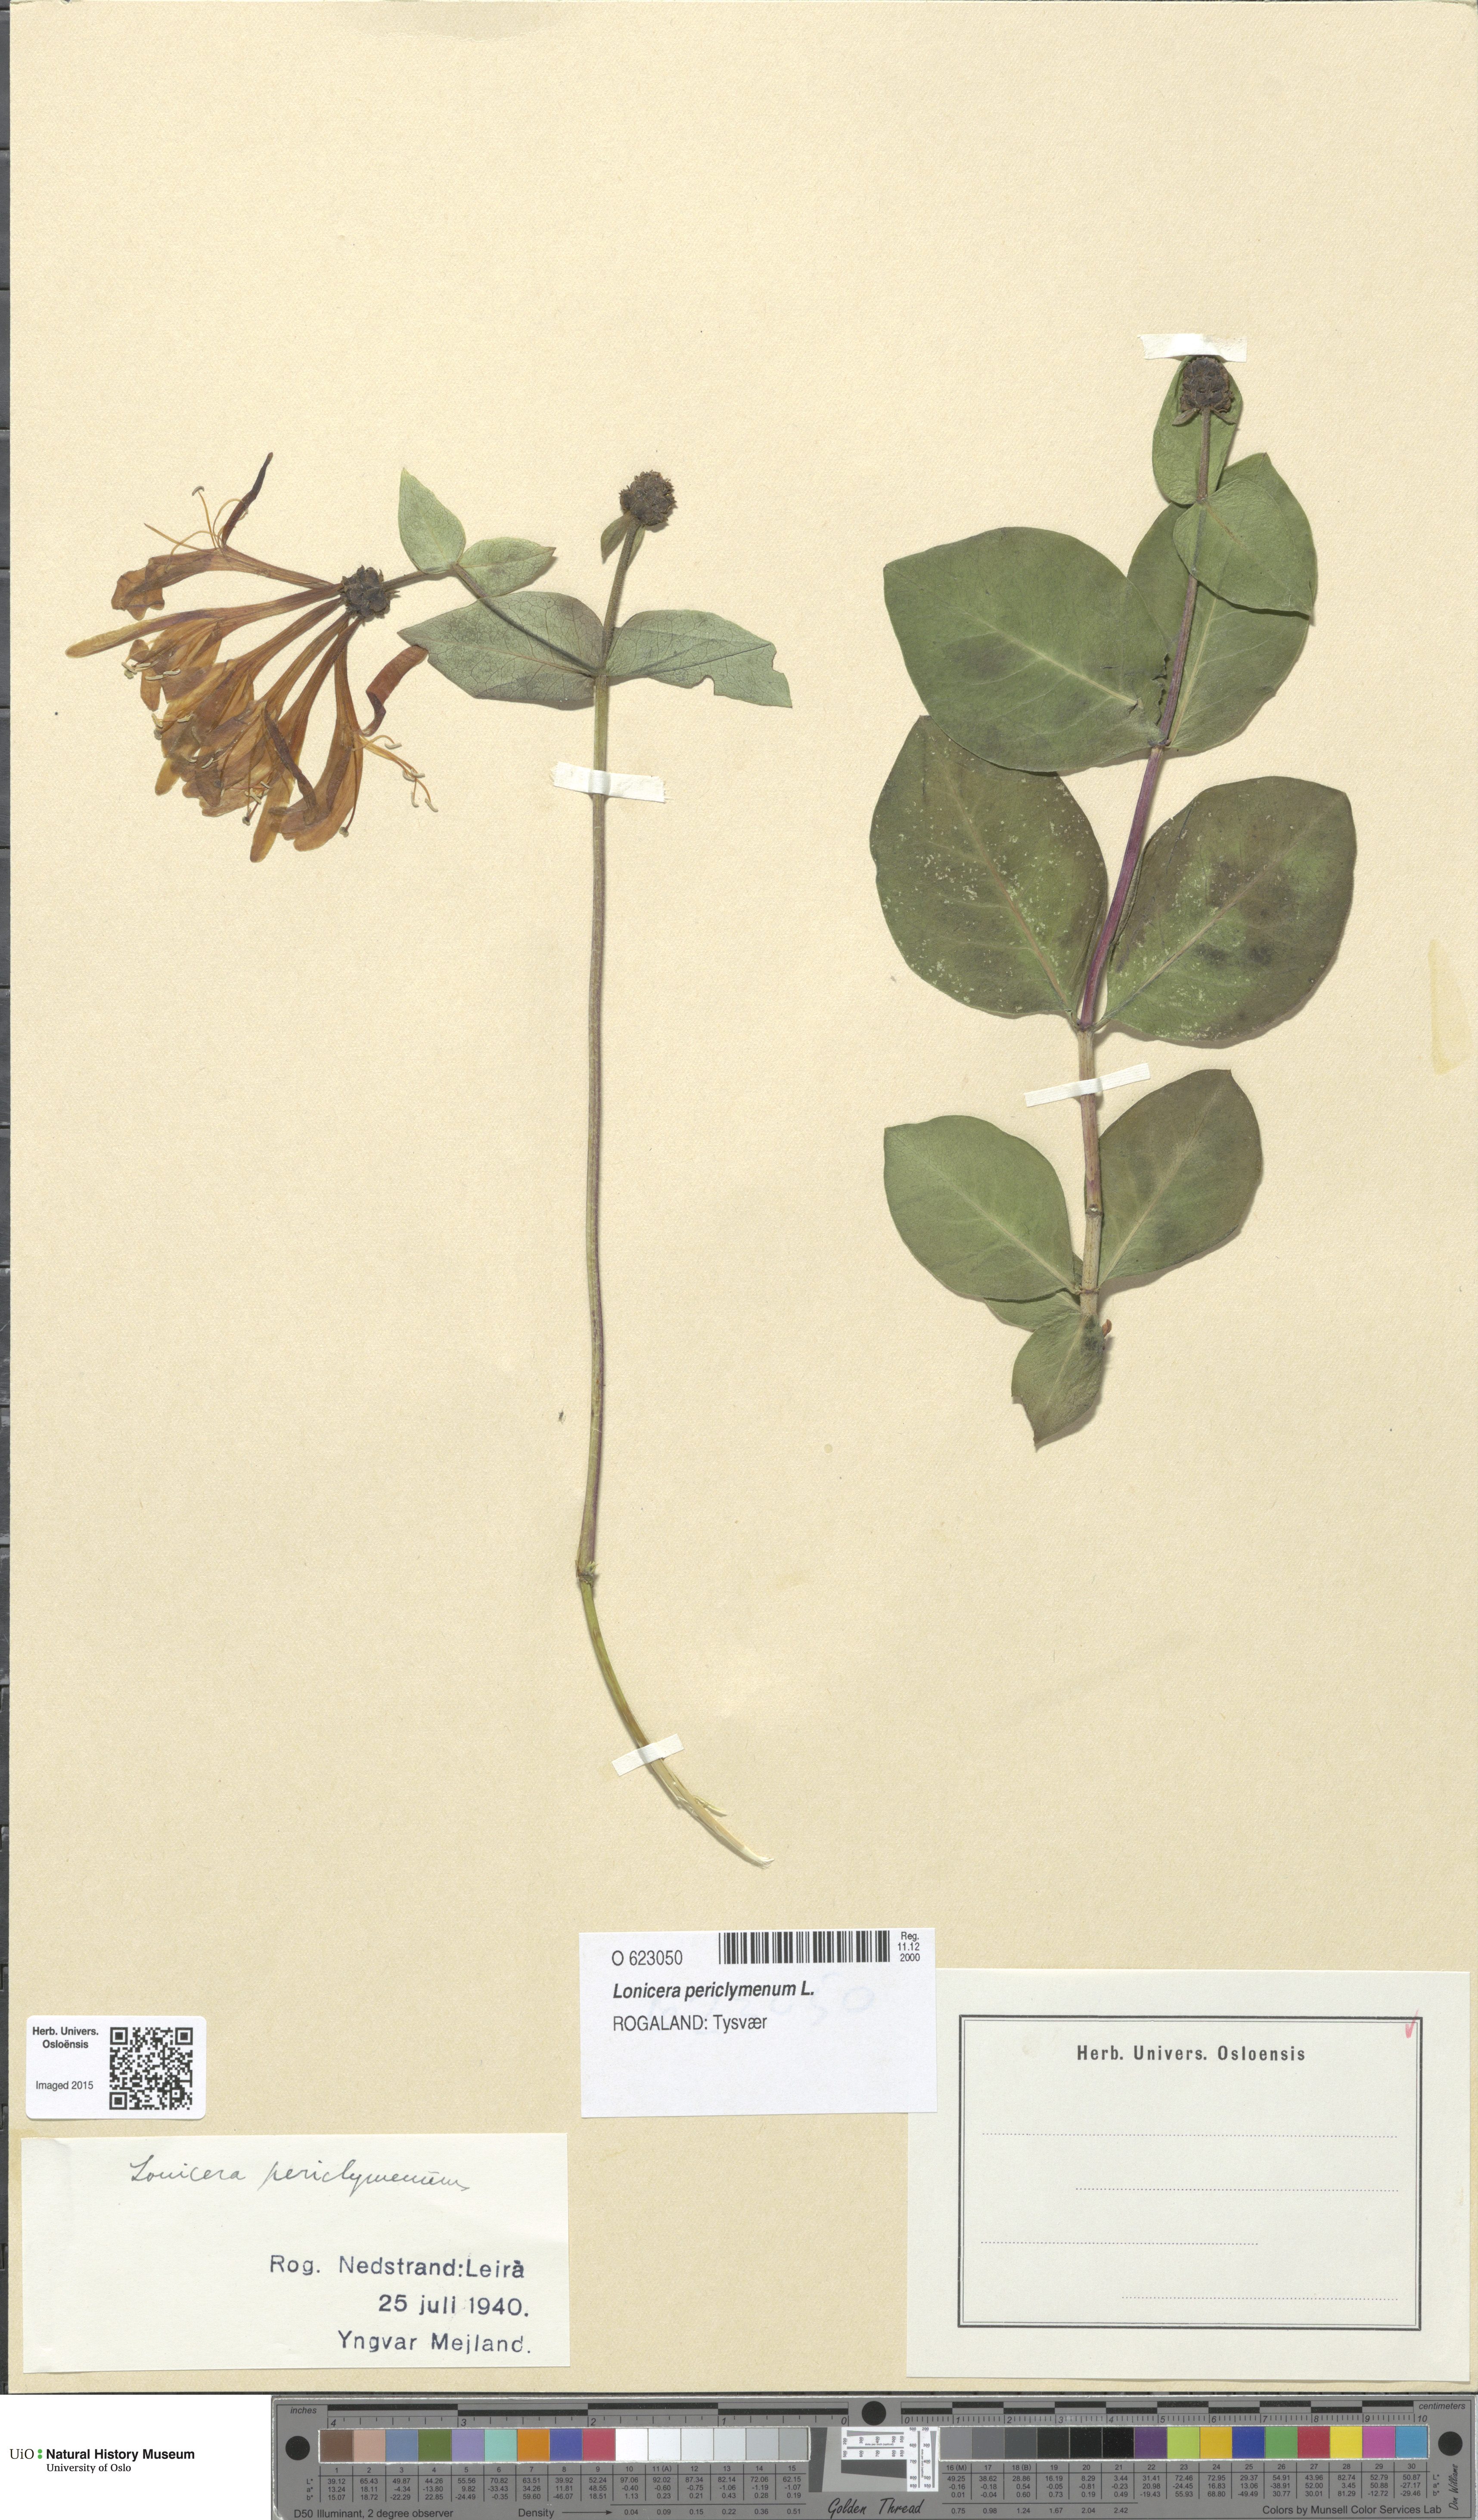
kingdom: Plantae
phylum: Tracheophyta
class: Magnoliopsida
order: Dipsacales
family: Caprifoliaceae
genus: Lonicera
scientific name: Lonicera periclymenum
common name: European honeysuckle
